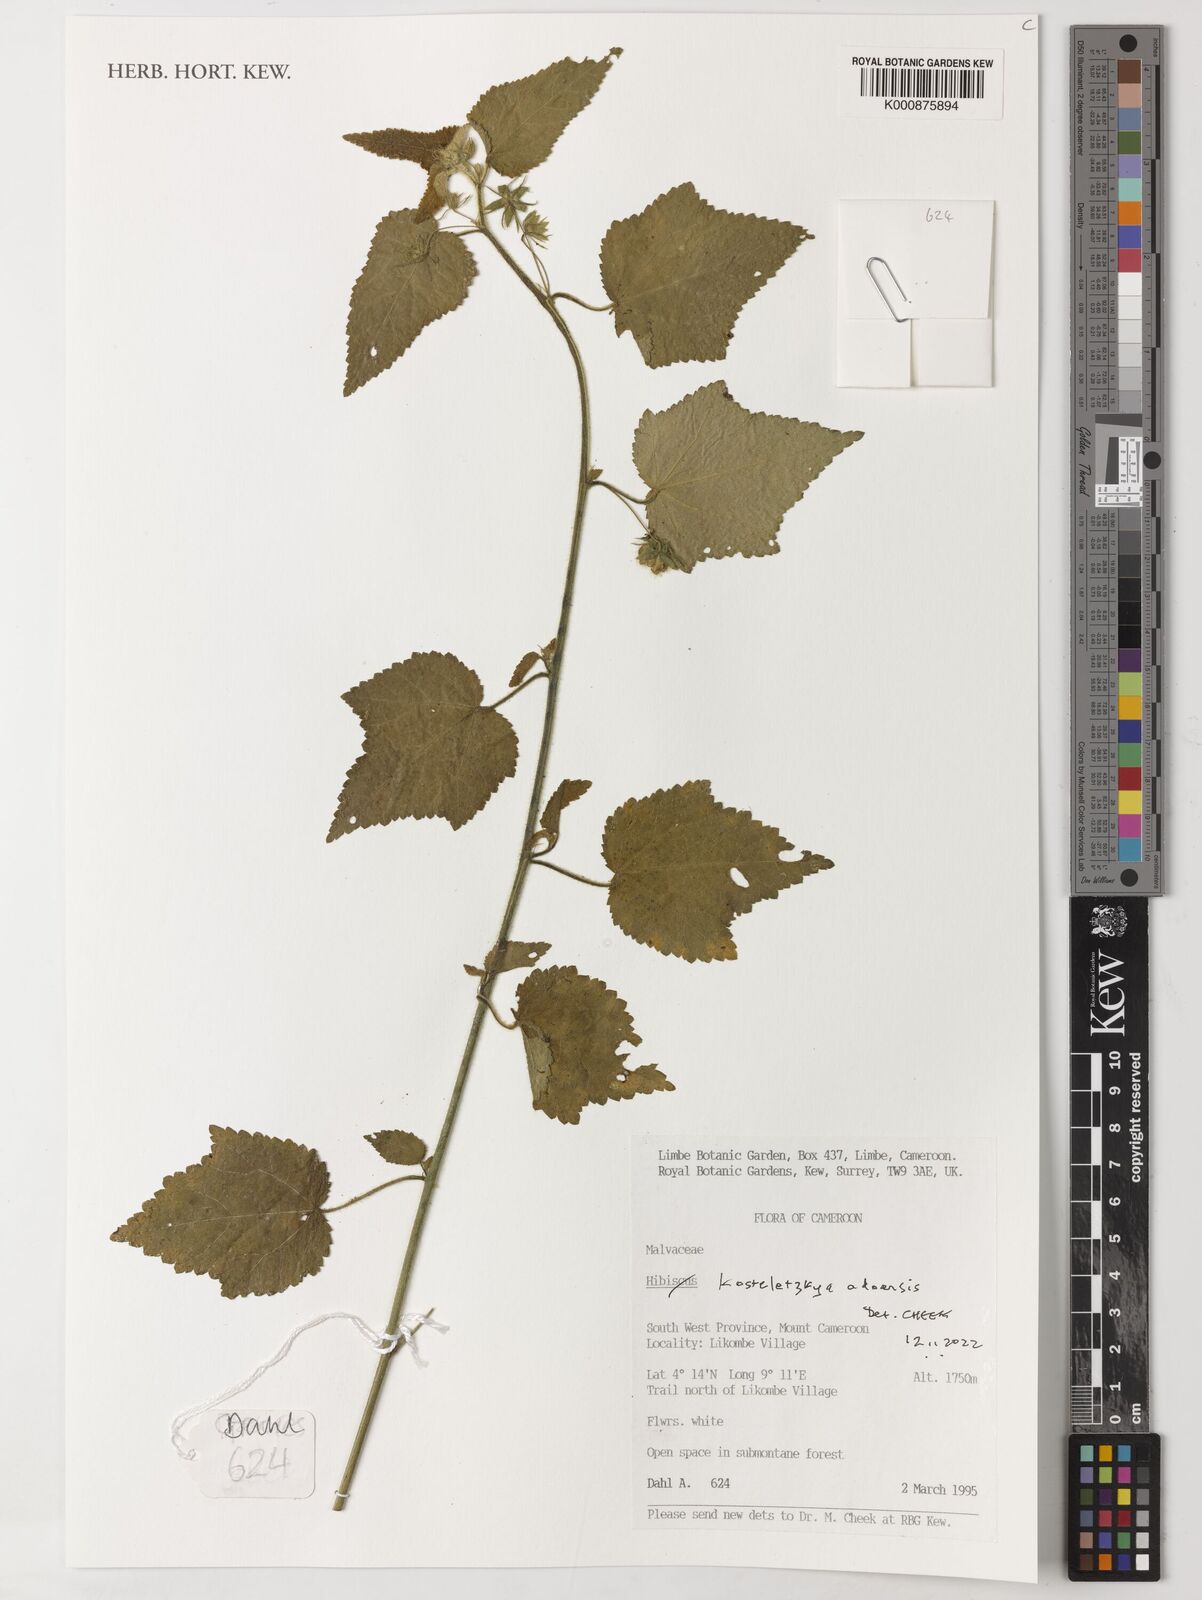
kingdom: Plantae
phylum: Tracheophyta
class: Magnoliopsida
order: Malvales
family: Malvaceae
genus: Kosteletzkya
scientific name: Kosteletzkya adoensis
